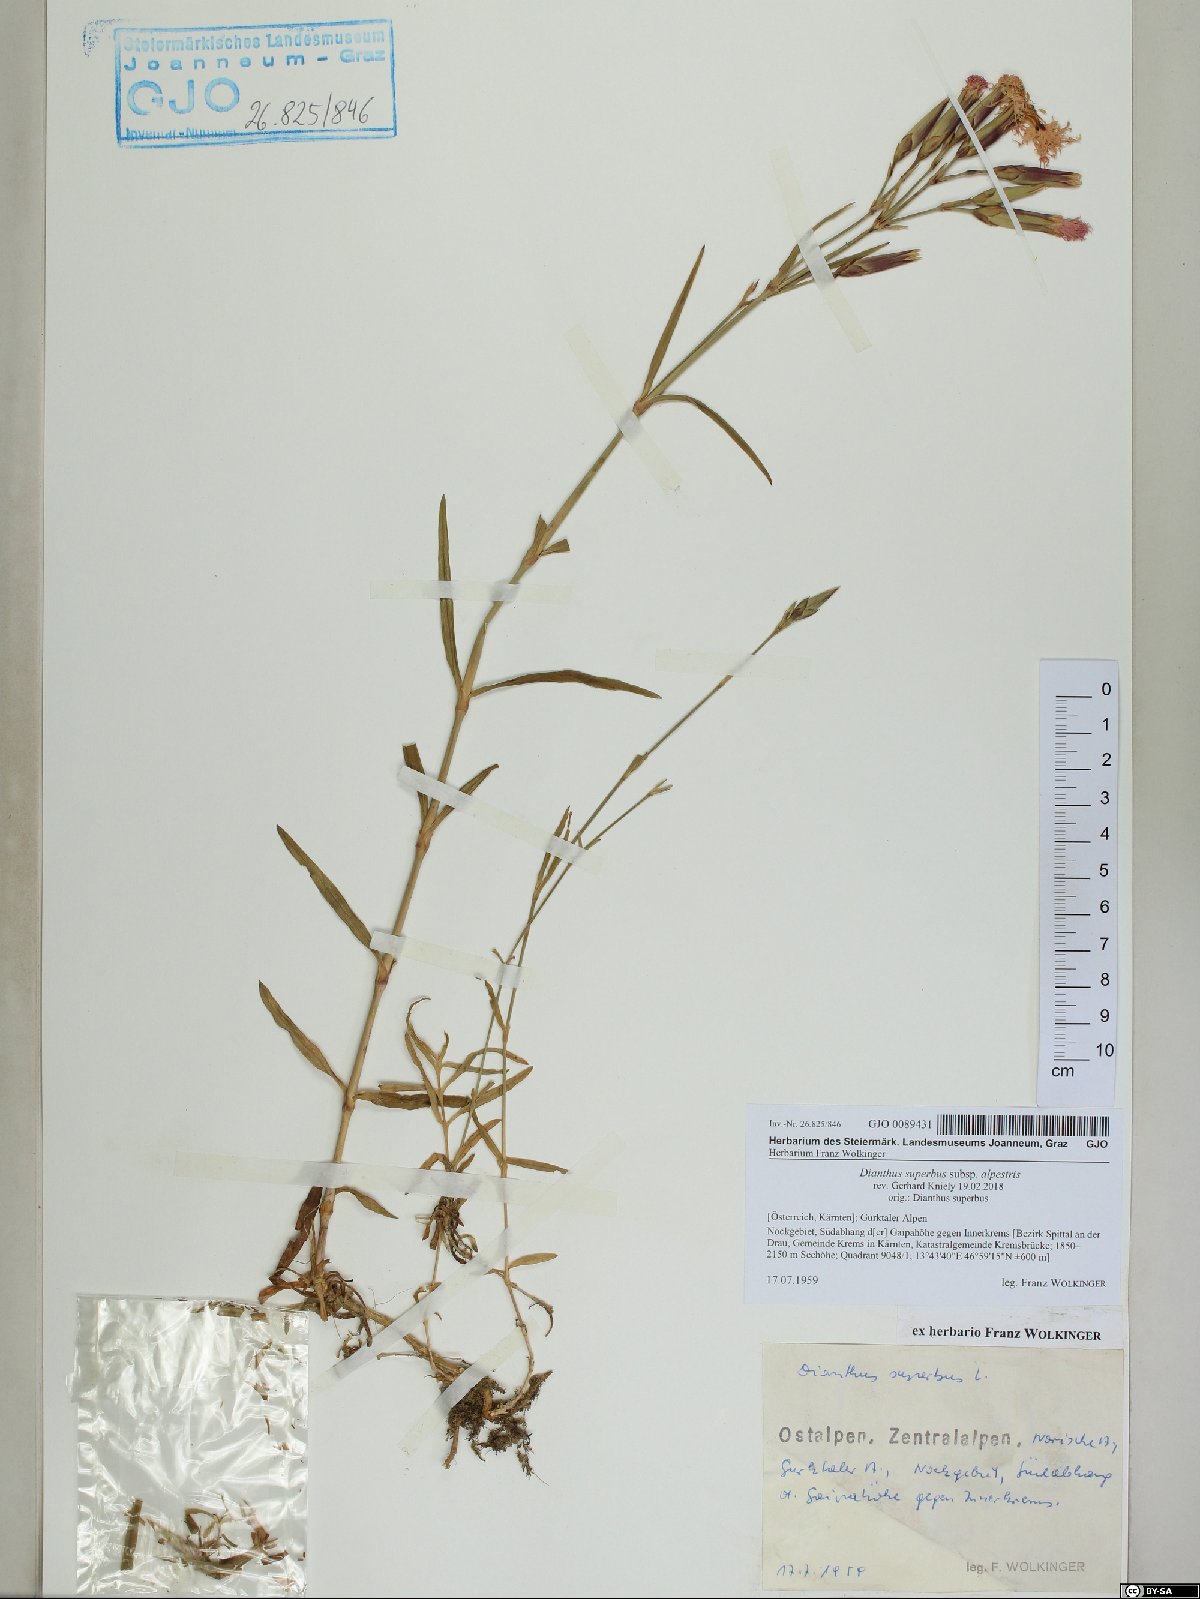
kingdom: Plantae
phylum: Tracheophyta
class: Magnoliopsida
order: Caryophyllales
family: Caryophyllaceae
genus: Dianthus
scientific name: Dianthus superbus
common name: Fringed pink
